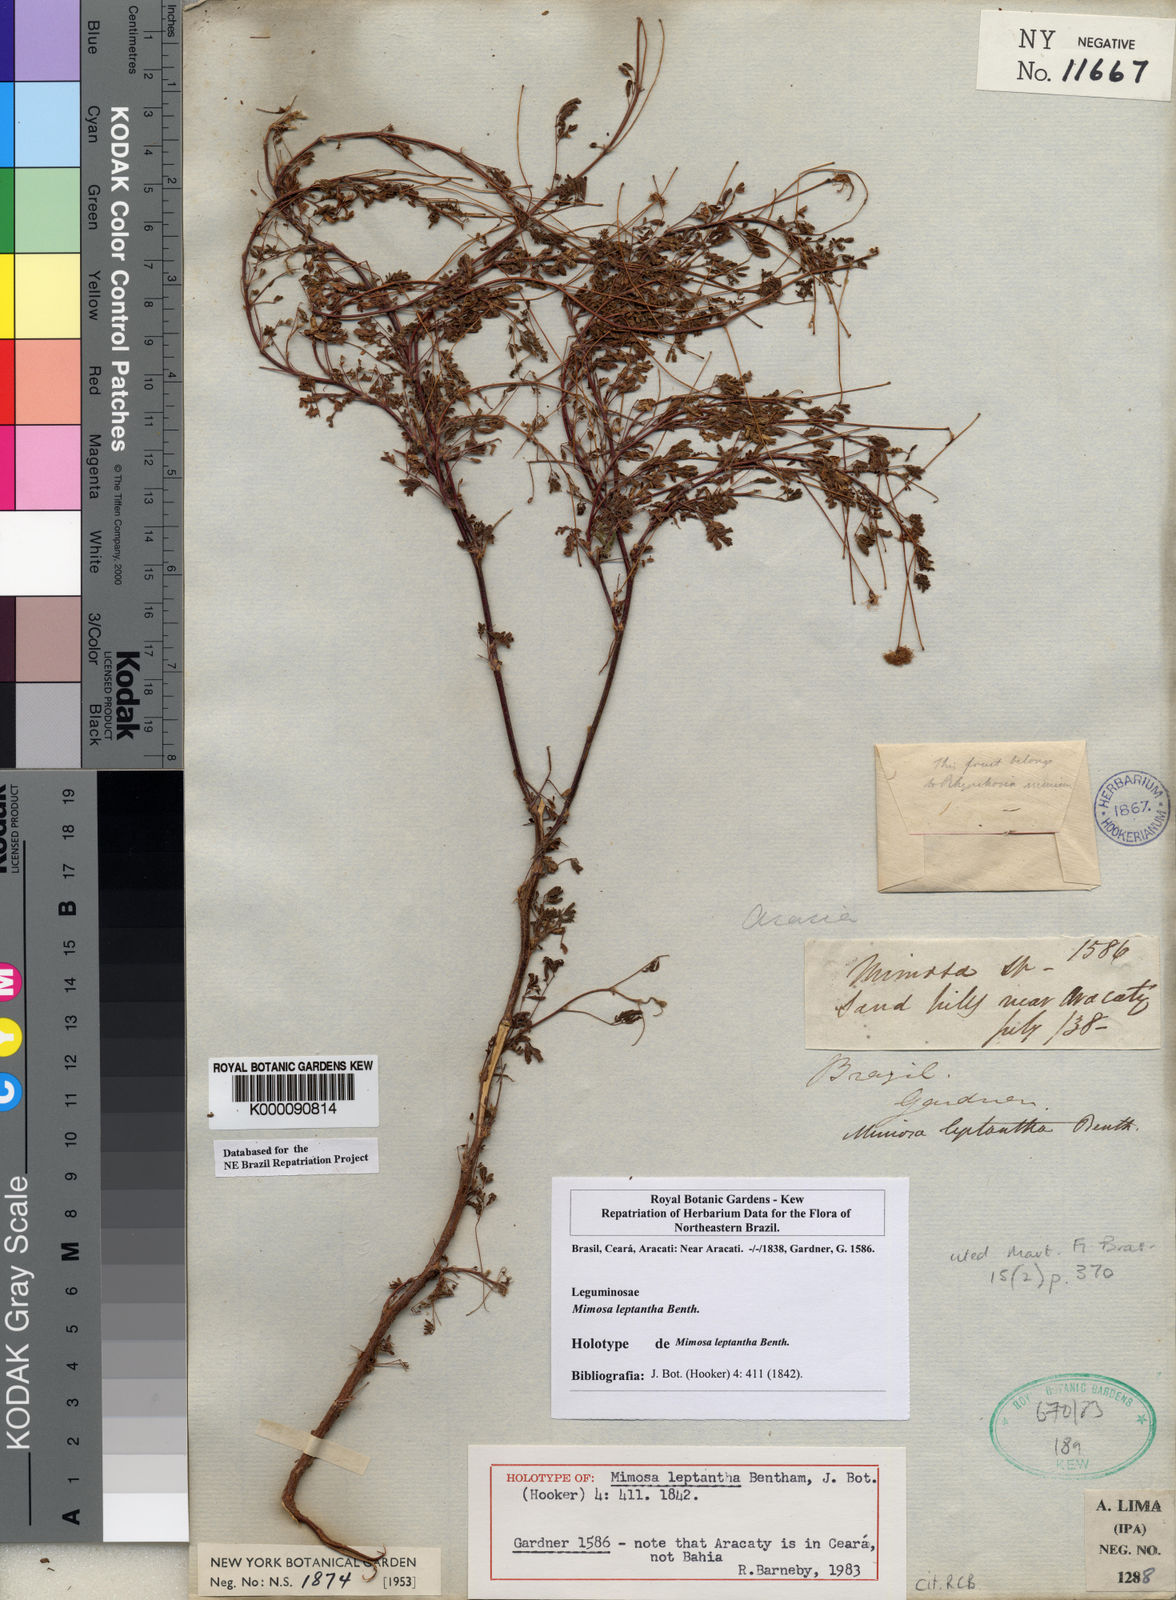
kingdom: Plantae
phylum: Tracheophyta
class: Magnoliopsida
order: Fabales
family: Fabaceae
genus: Mimosa
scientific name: Mimosa leptantha
